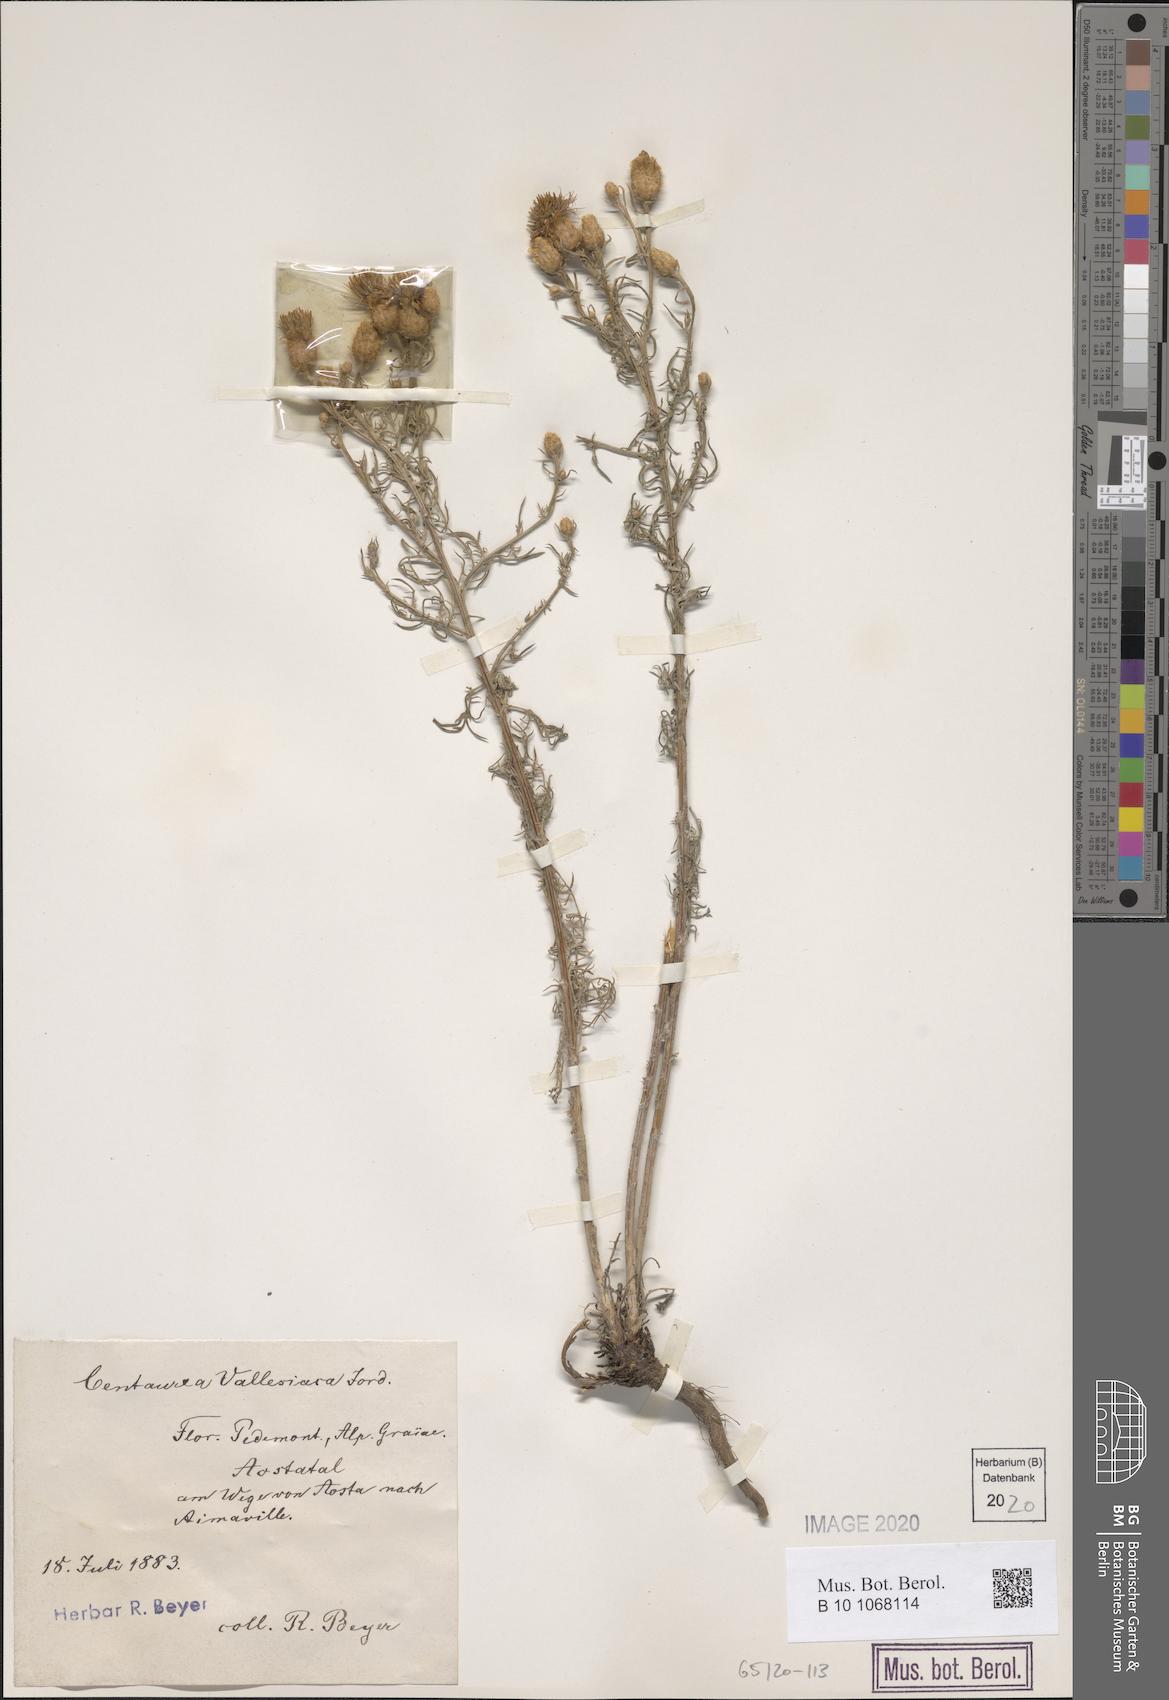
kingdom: Plantae
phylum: Tracheophyta
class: Magnoliopsida
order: Asterales
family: Asteraceae
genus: Centaurea
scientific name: Centaurea valesiaca
